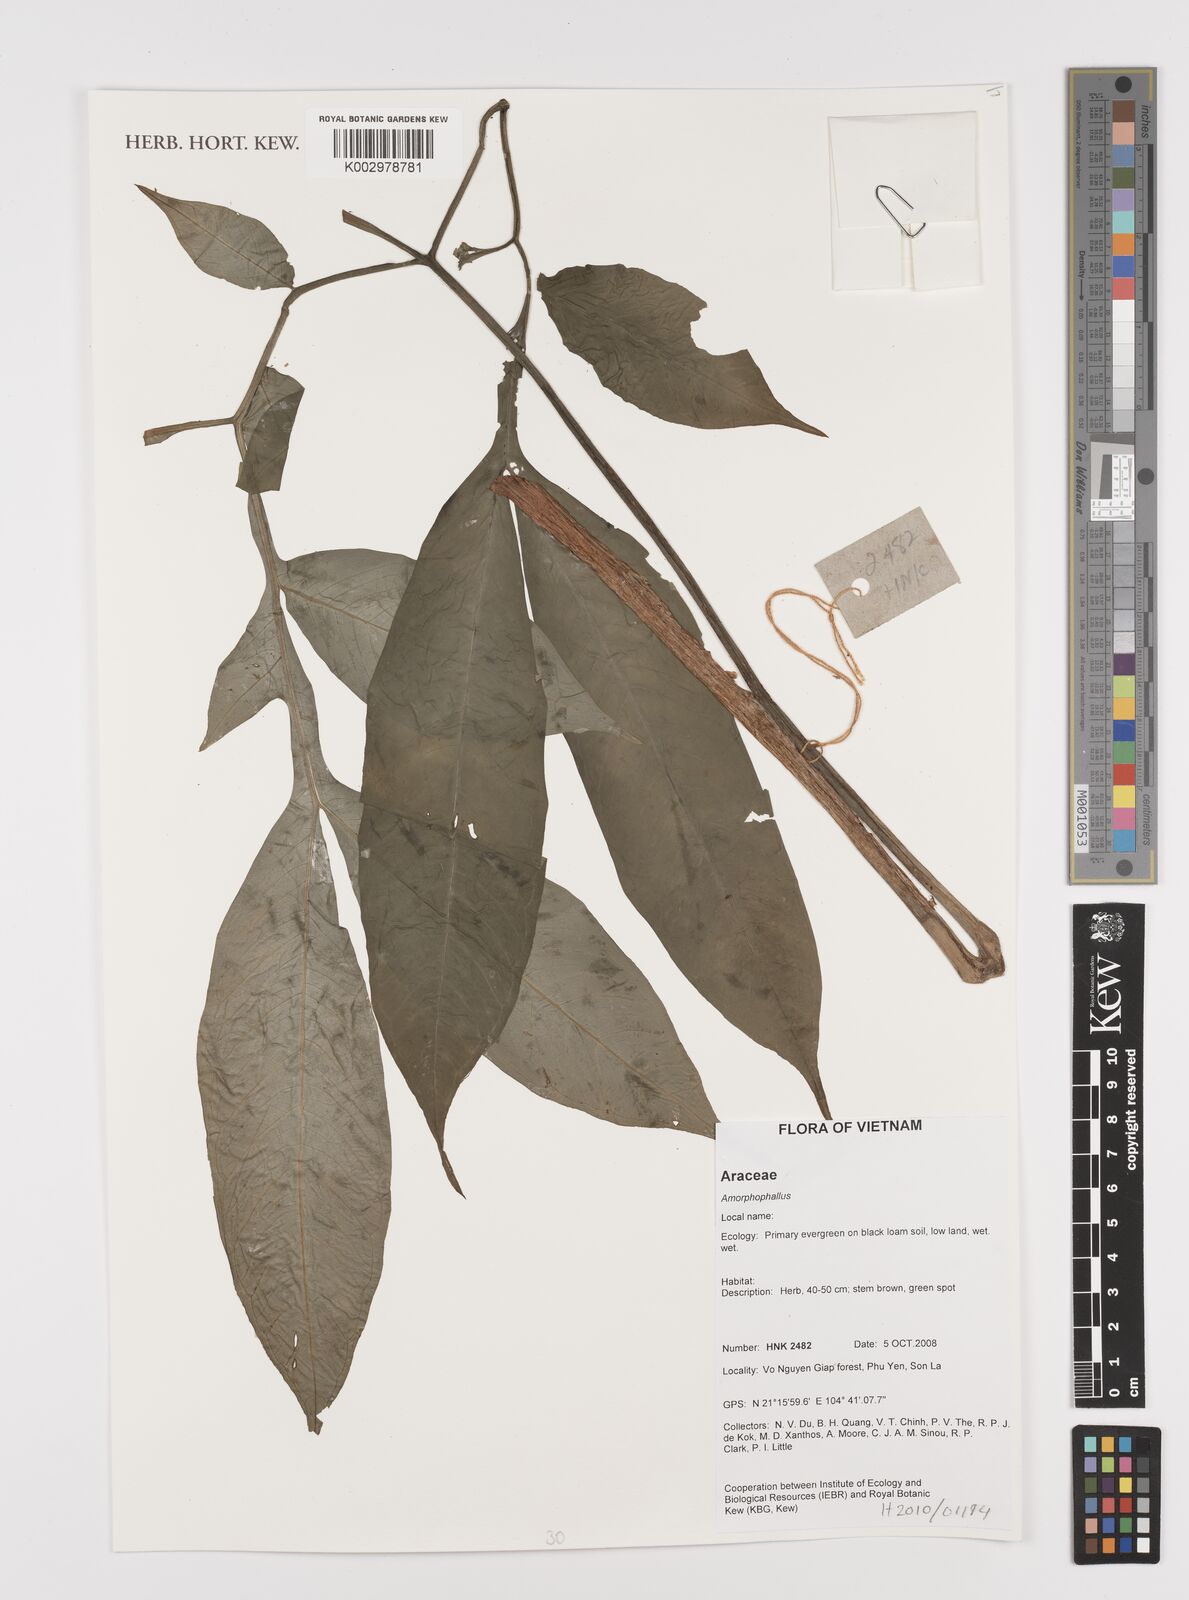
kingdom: Plantae
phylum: Tracheophyta
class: Liliopsida
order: Alismatales
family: Araceae
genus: Amorphophallus
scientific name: Amorphophallus
